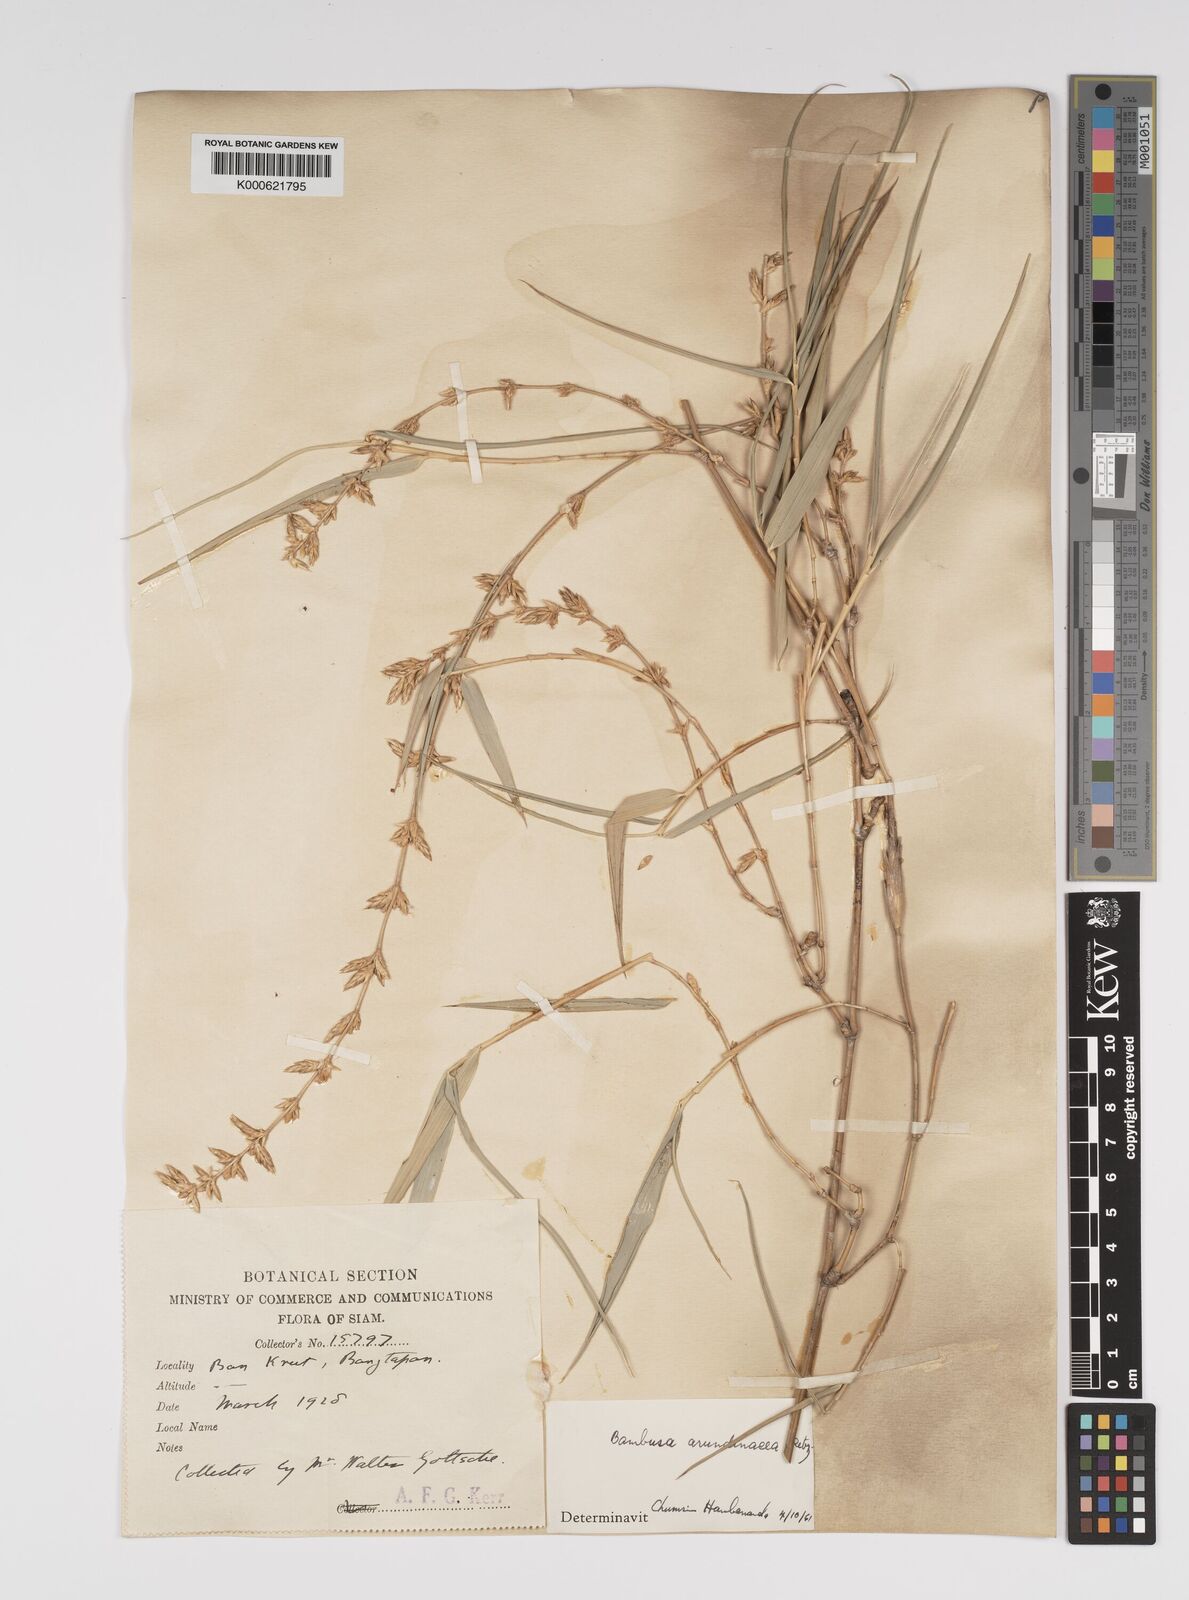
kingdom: Plantae
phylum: Tracheophyta
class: Liliopsida
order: Poales
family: Poaceae
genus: Bambusa
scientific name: Bambusa bambos
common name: Indian thorny bamboo
